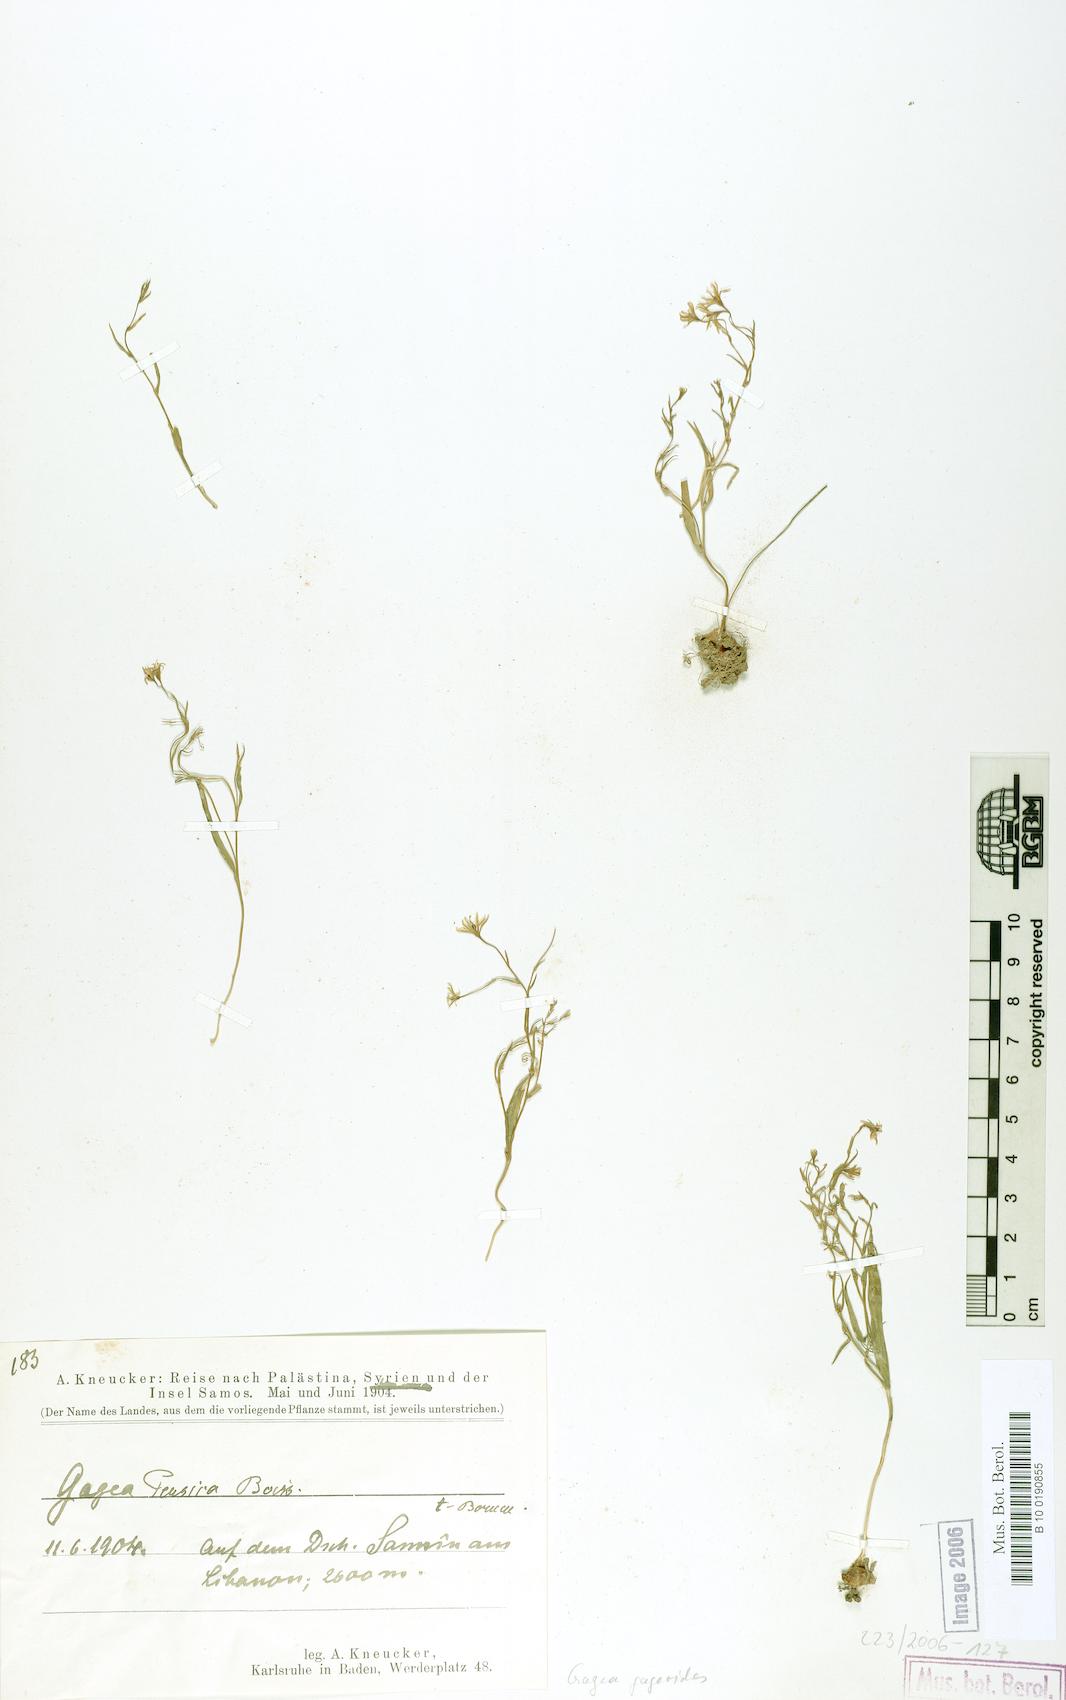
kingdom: Plantae
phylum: Tracheophyta
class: Liliopsida
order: Liliales
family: Liliaceae
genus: Gagea
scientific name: Gagea gageoides
